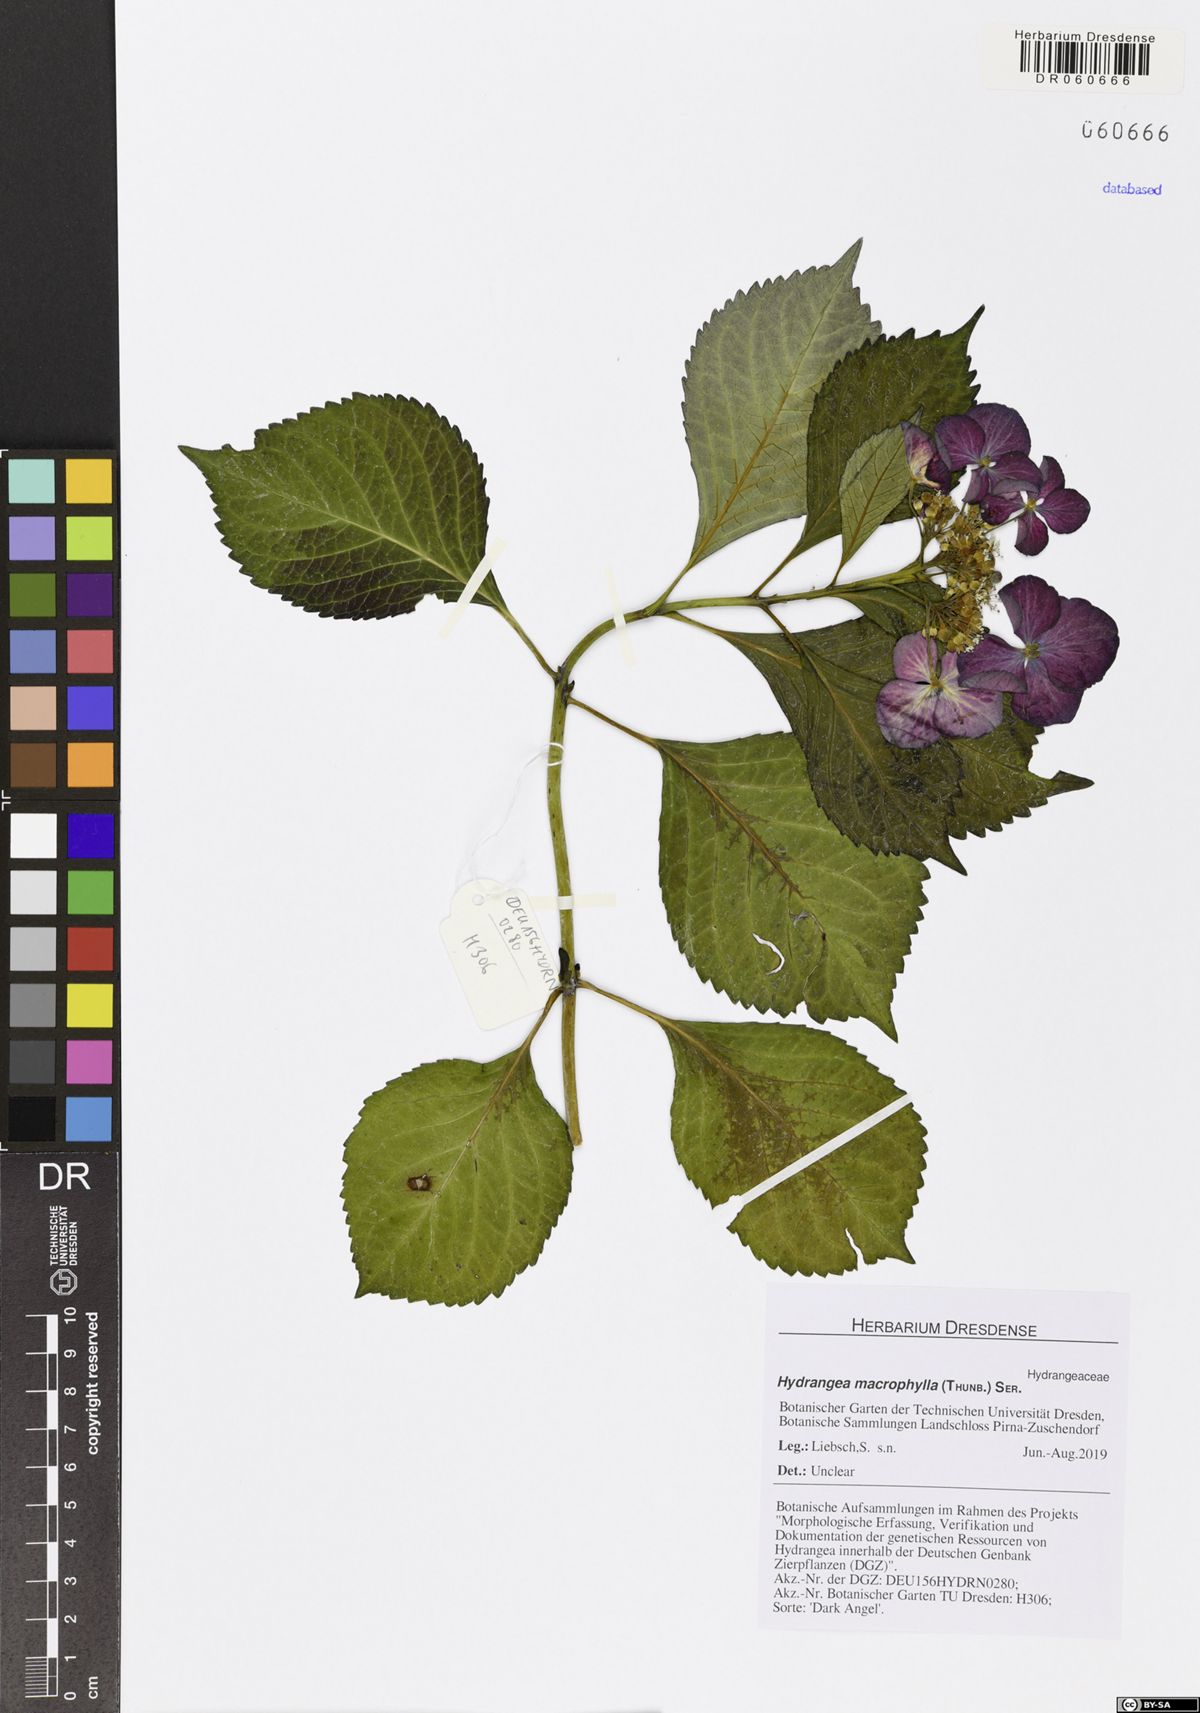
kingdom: Plantae
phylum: Tracheophyta
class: Magnoliopsida
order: Cornales
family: Hydrangeaceae
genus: Hydrangea
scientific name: Hydrangea macrophylla
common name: Hydrangea
